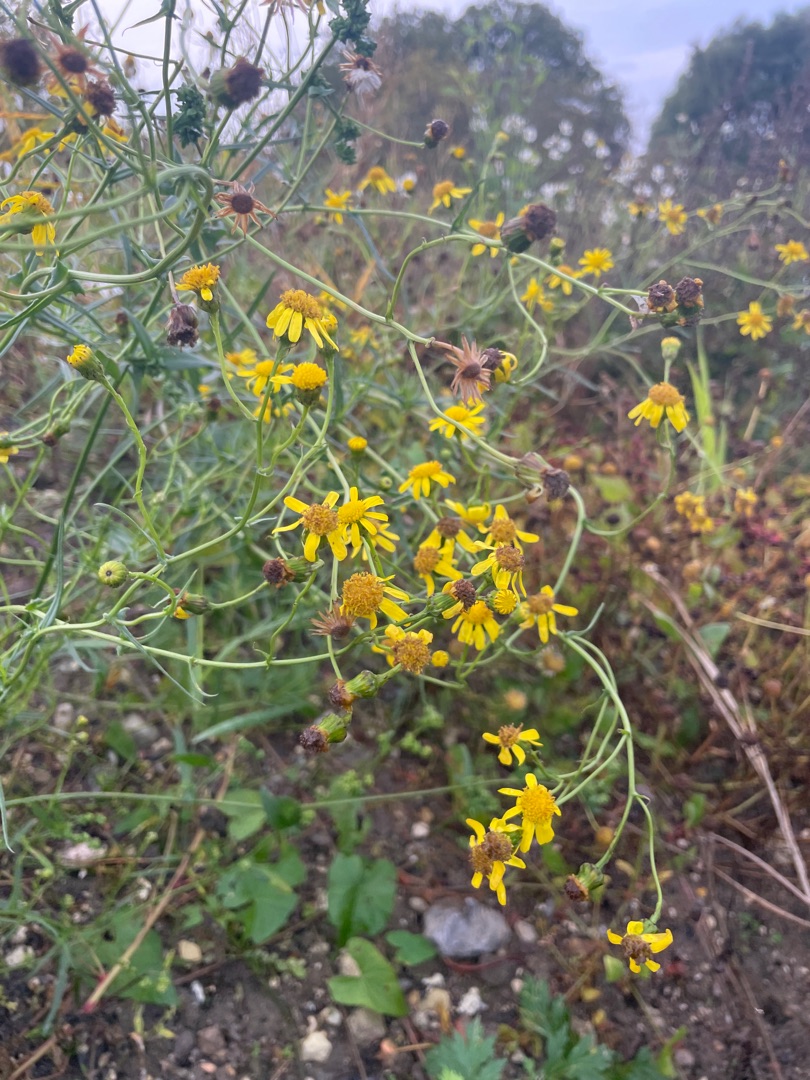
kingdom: Plantae
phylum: Tracheophyta
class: Magnoliopsida
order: Asterales
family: Asteraceae
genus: Senecio
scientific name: Senecio inaequidens
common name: Smalbladet brandbæger
